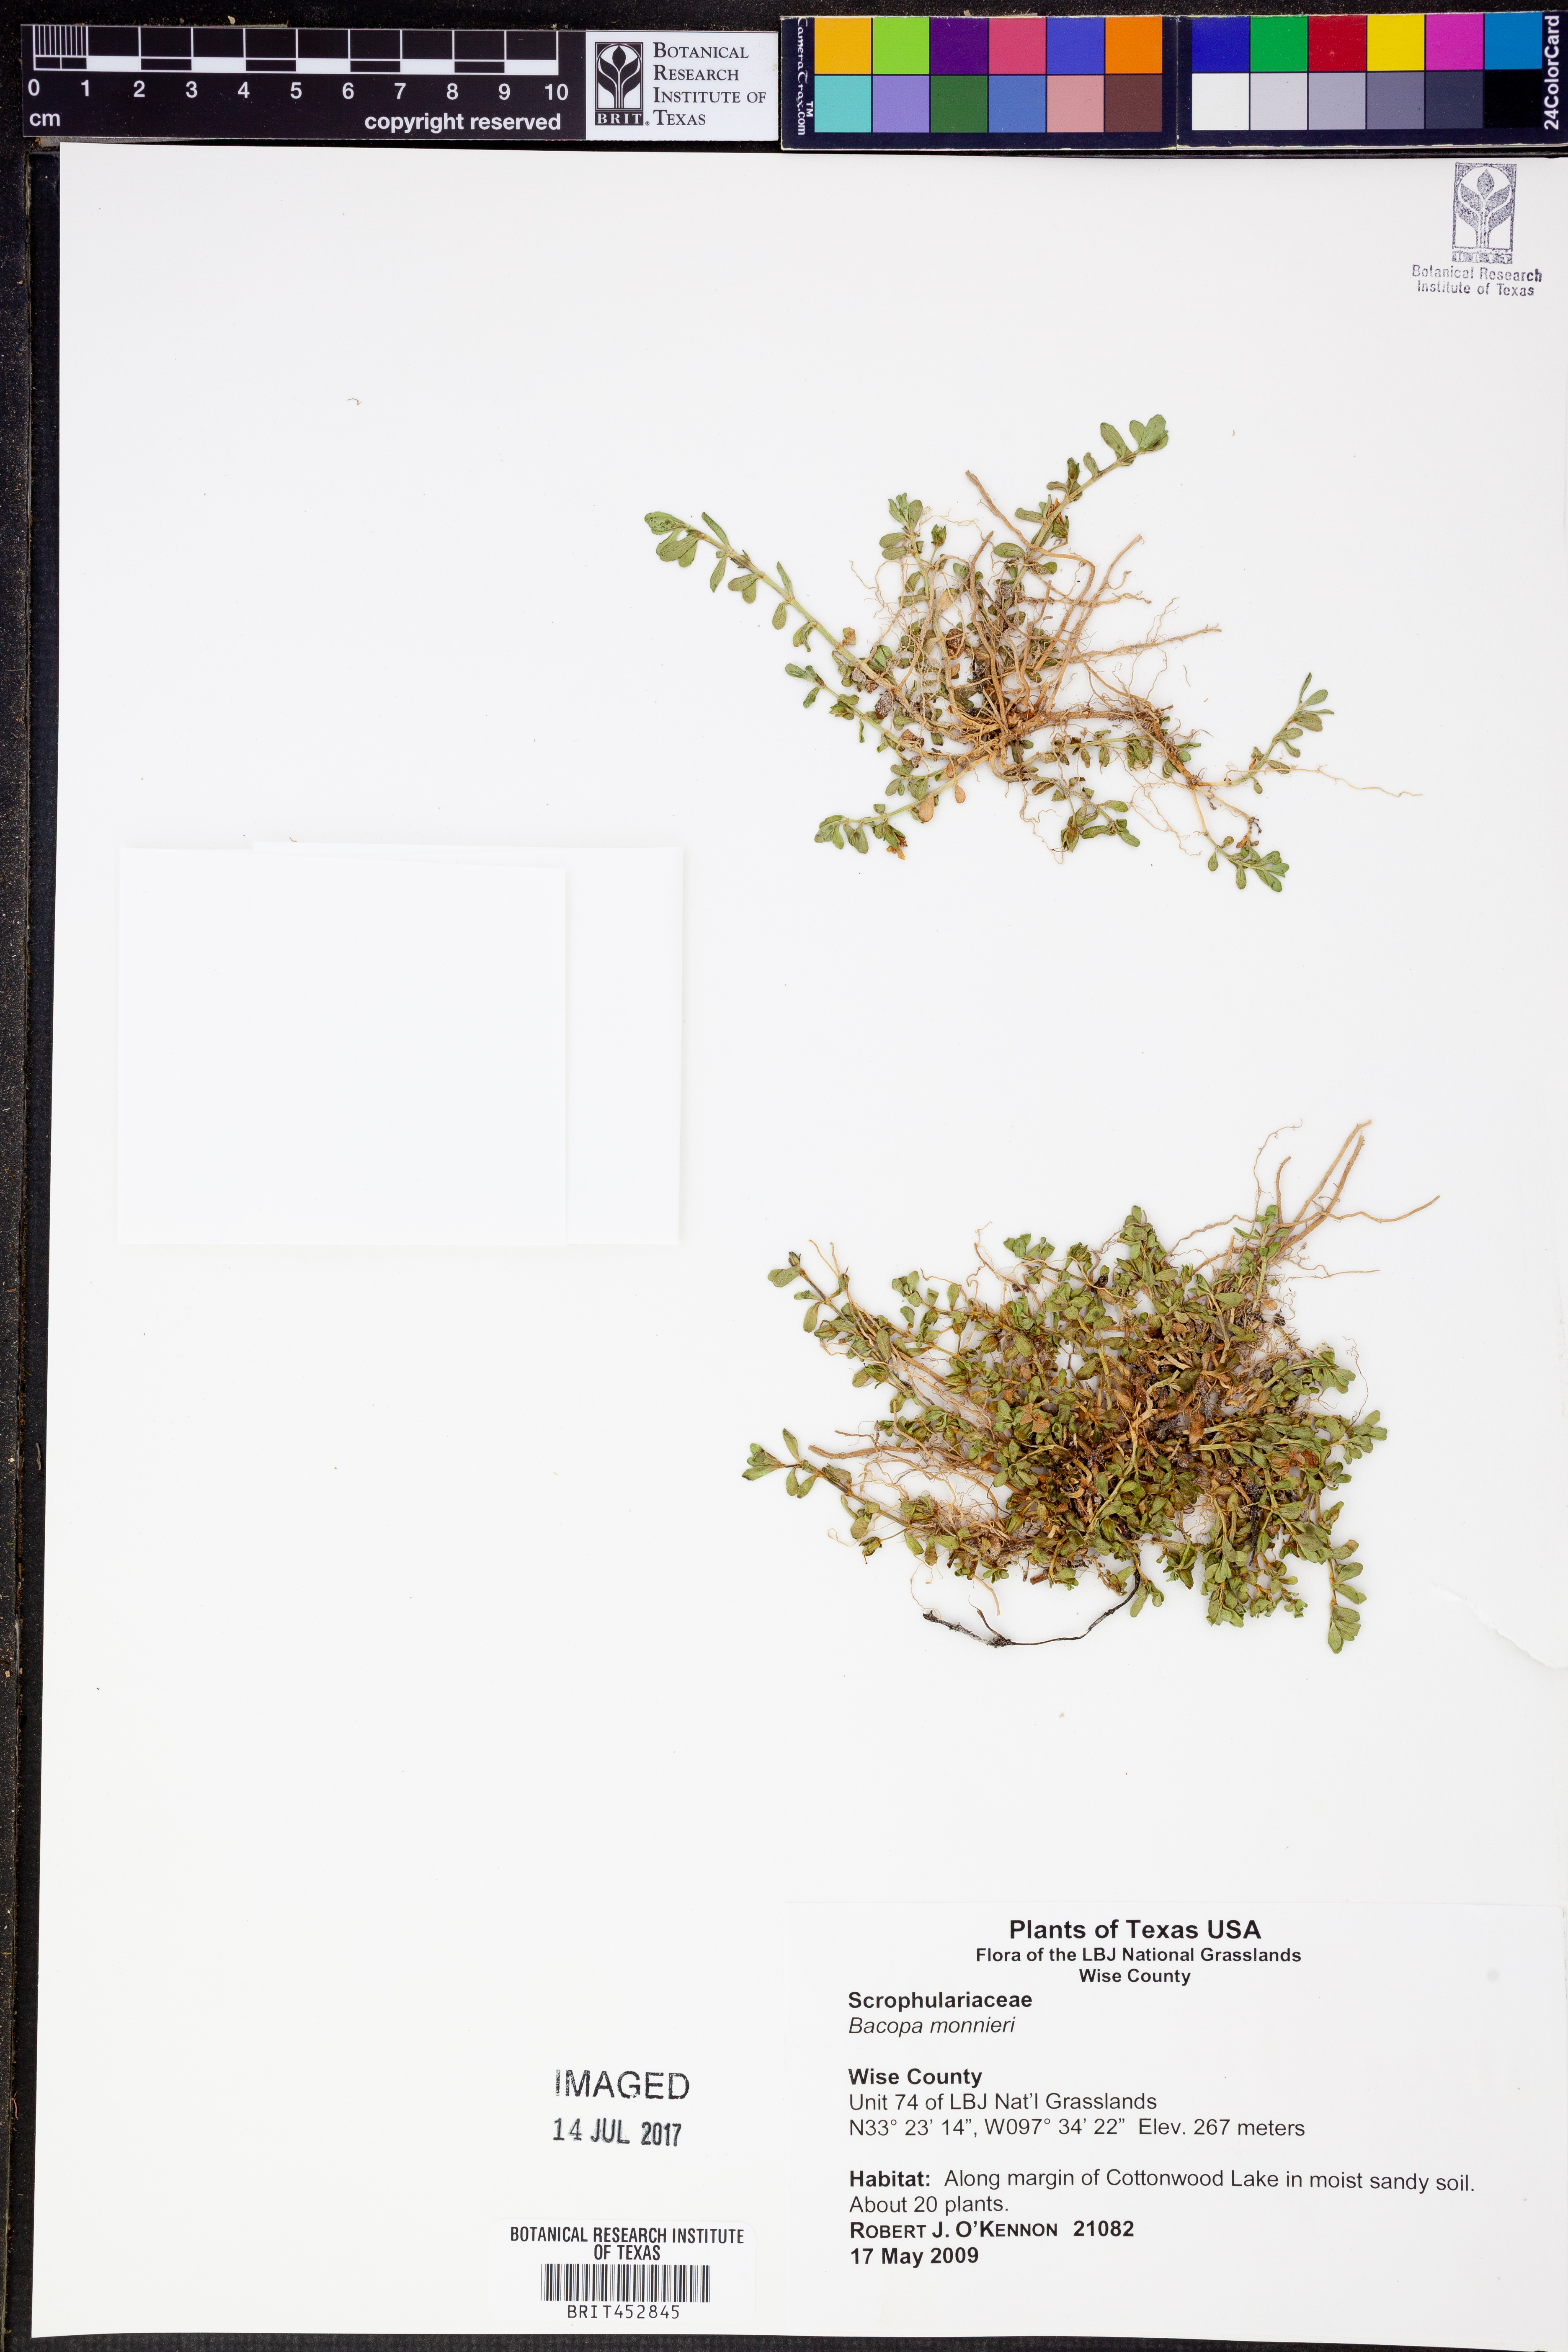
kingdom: Plantae
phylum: Tracheophyta
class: Magnoliopsida
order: Lamiales
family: Plantaginaceae
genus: Bacopa
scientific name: Bacopa monnieri
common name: Indian-pennywort
